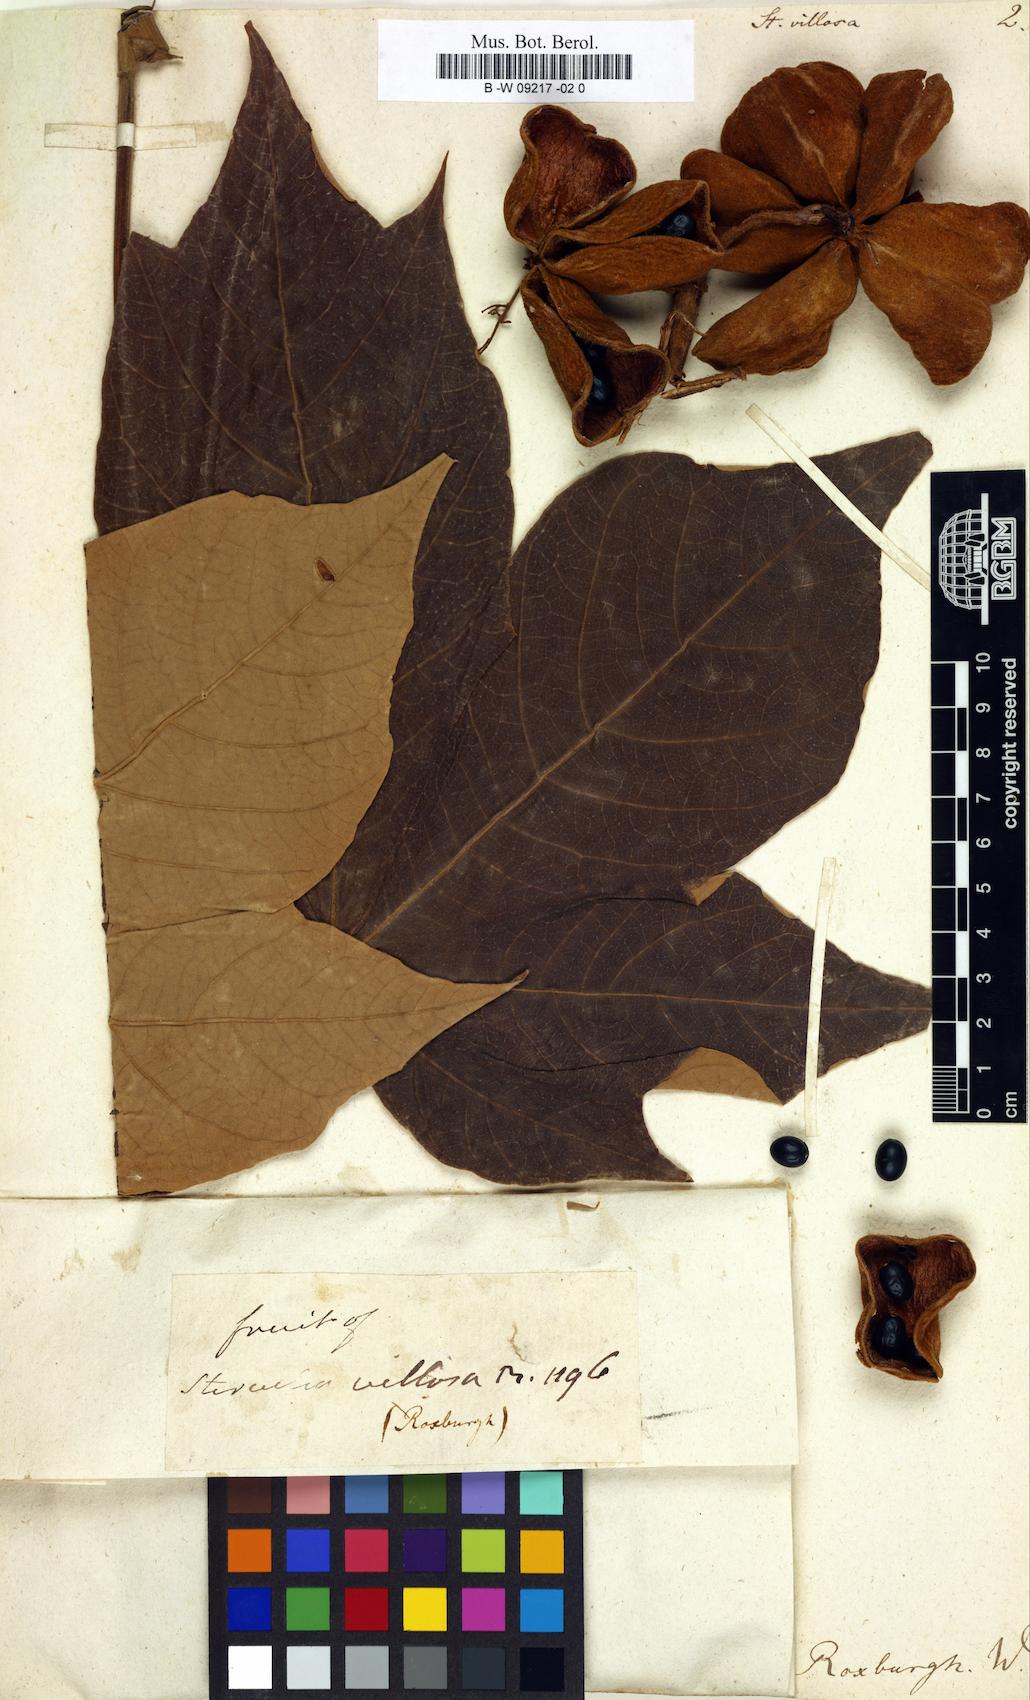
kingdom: Plantae
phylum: Tracheophyta
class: Magnoliopsida
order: Malvales
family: Malvaceae
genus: Sterculia
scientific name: Sterculia villosa
